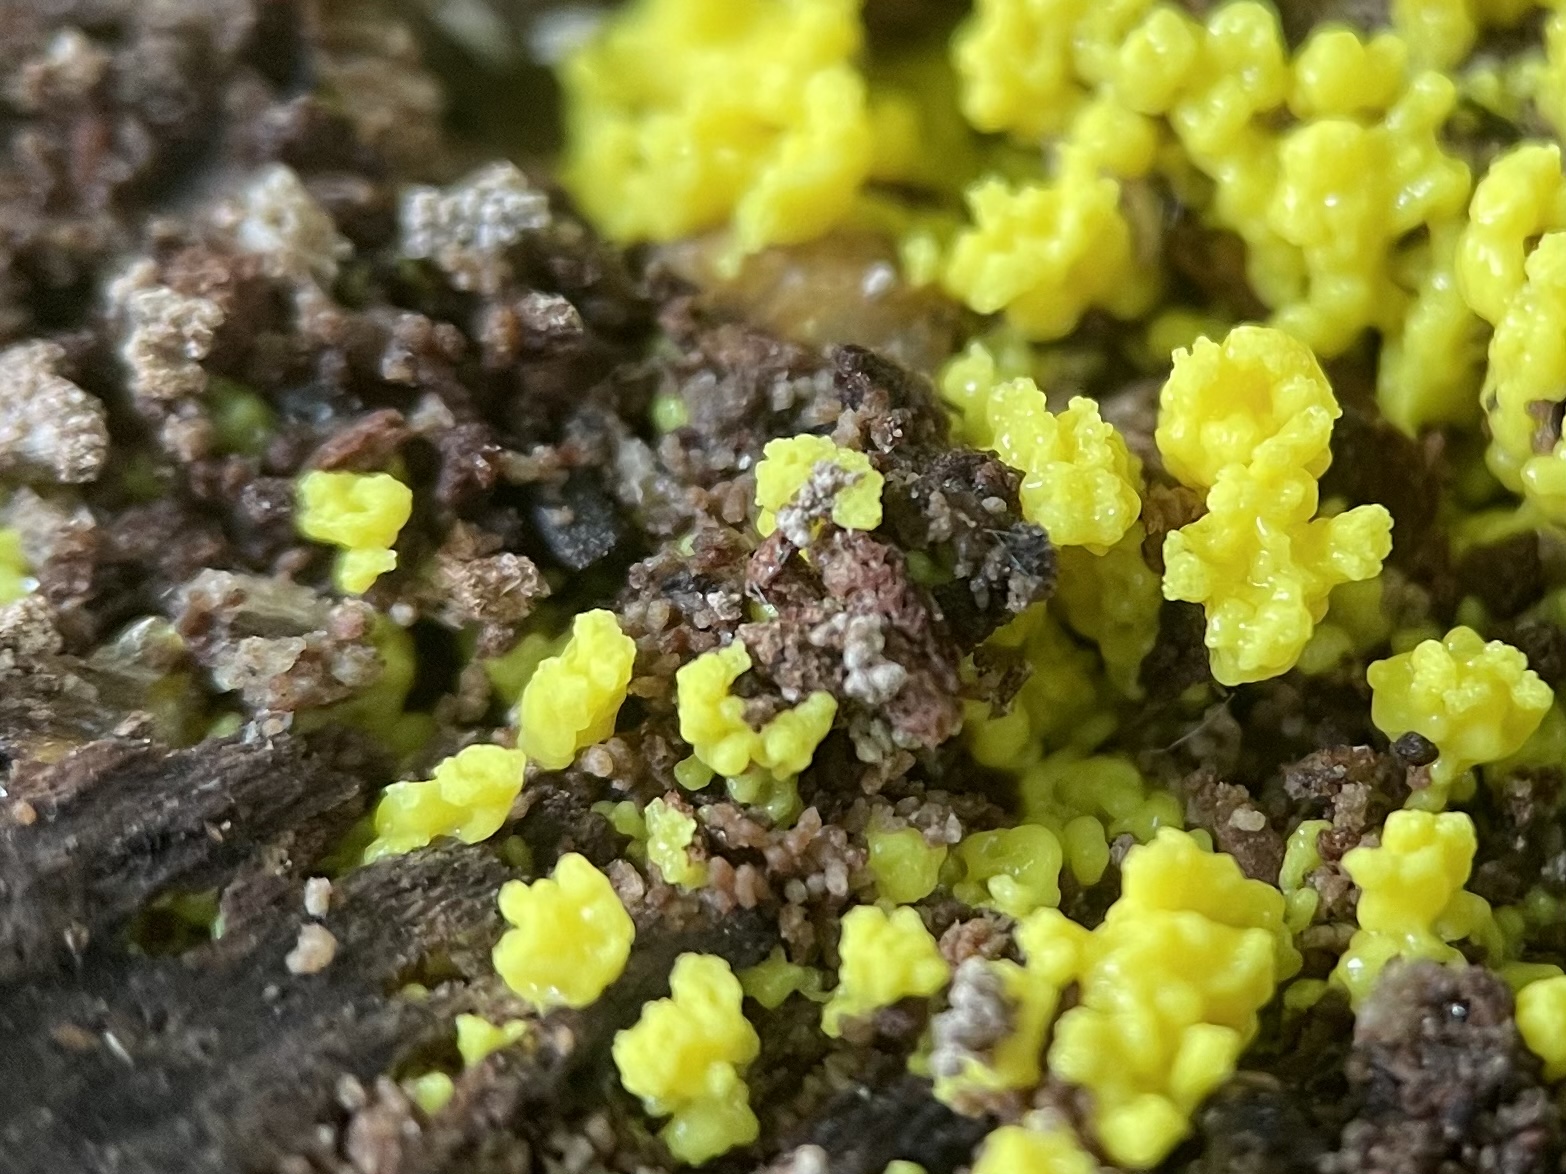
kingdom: Protozoa
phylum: Mycetozoa
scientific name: Mycetozoa
